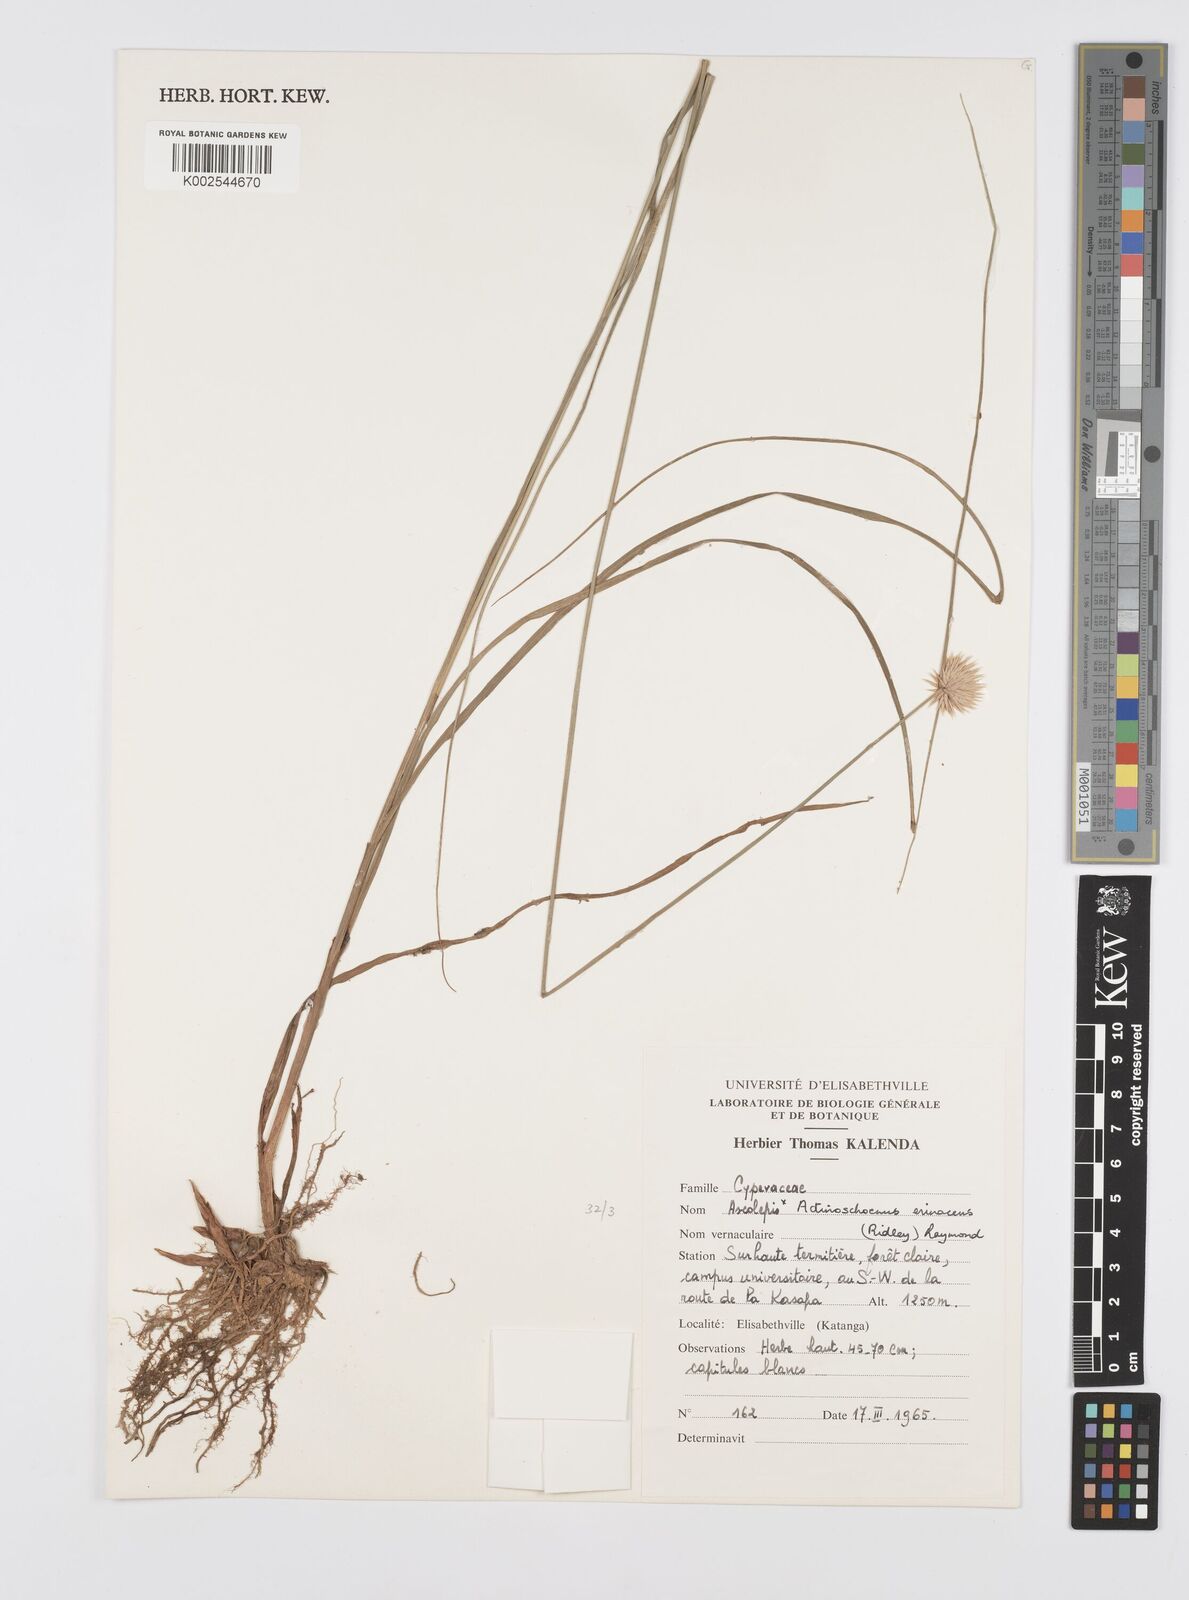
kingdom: Plantae
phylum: Tracheophyta
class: Liliopsida
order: Poales
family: Cyperaceae
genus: Cyperus
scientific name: Cyperus erinaceus
